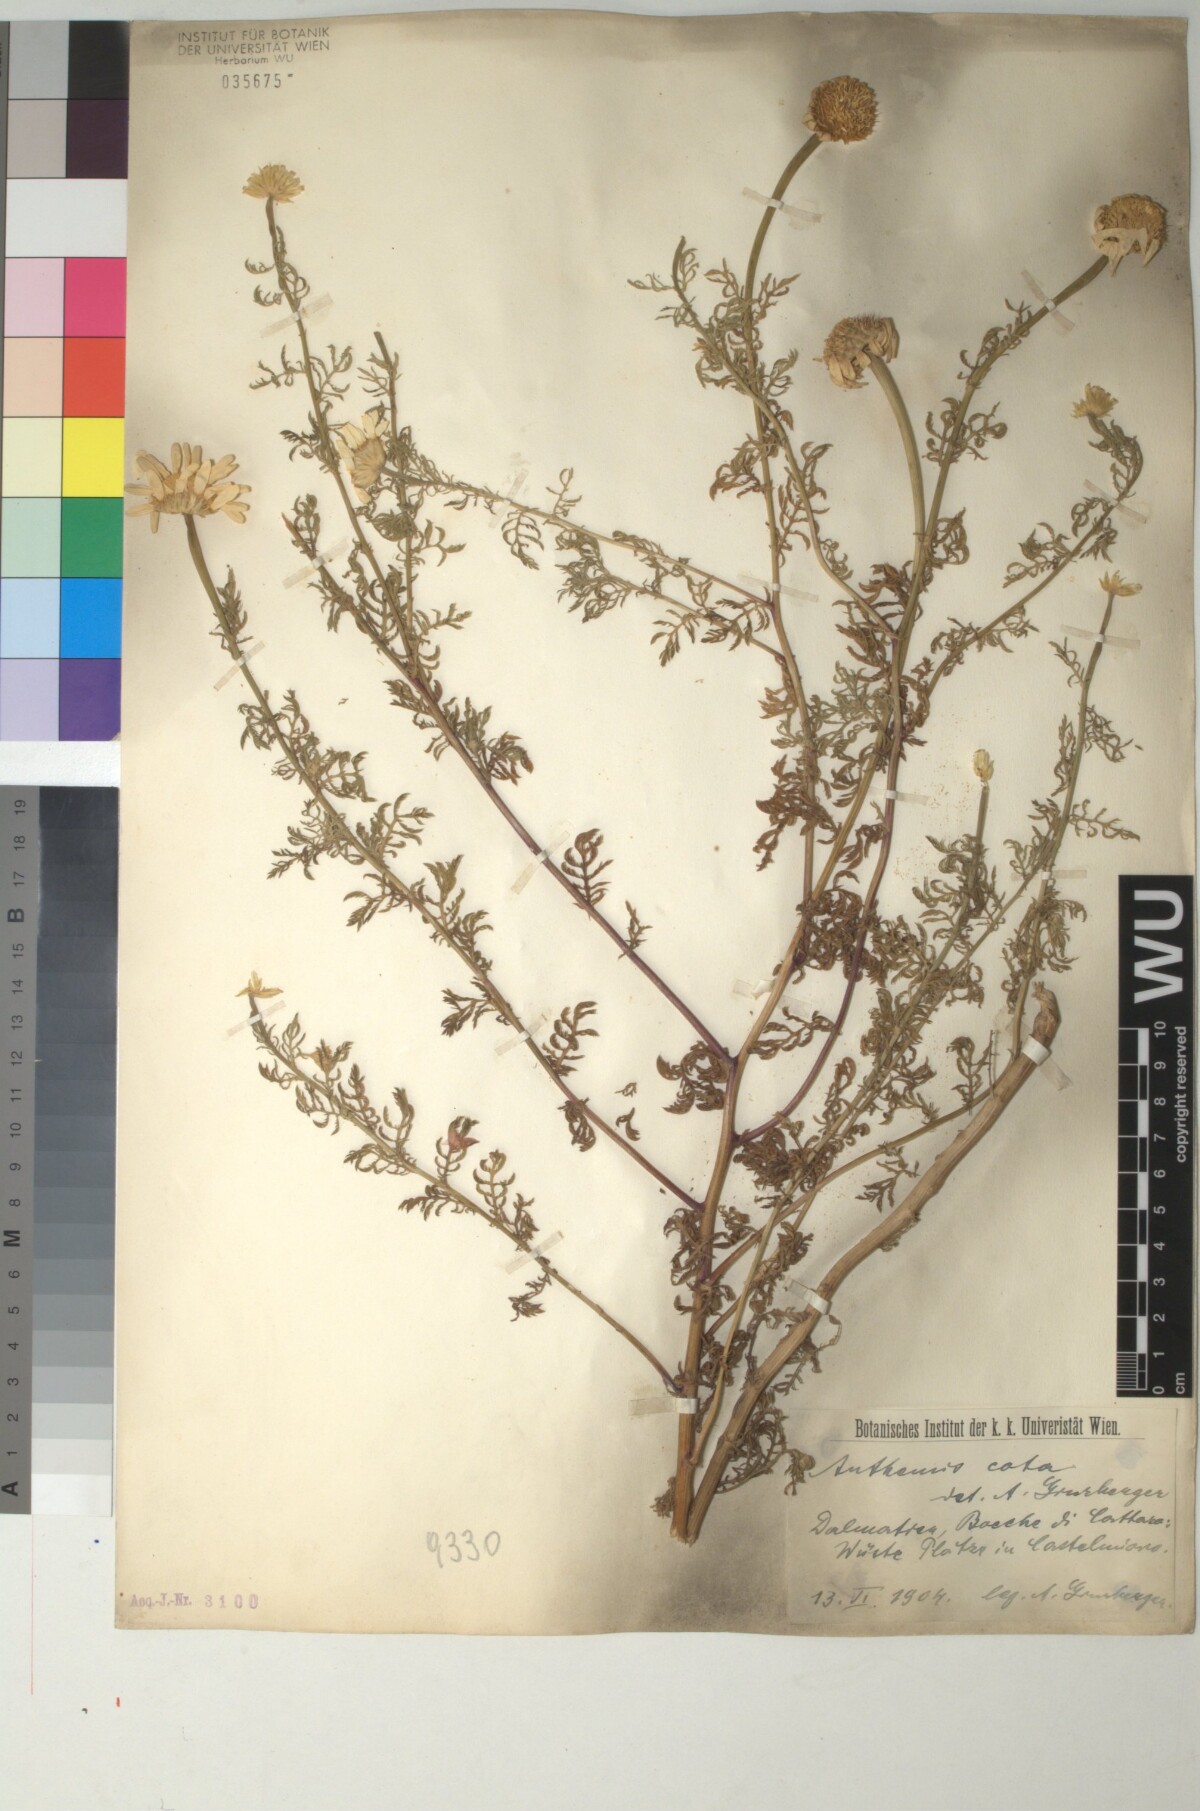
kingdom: Plantae
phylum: Tracheophyta
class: Magnoliopsida
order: Asterales
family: Asteraceae
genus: Cota
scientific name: Cota altissima
